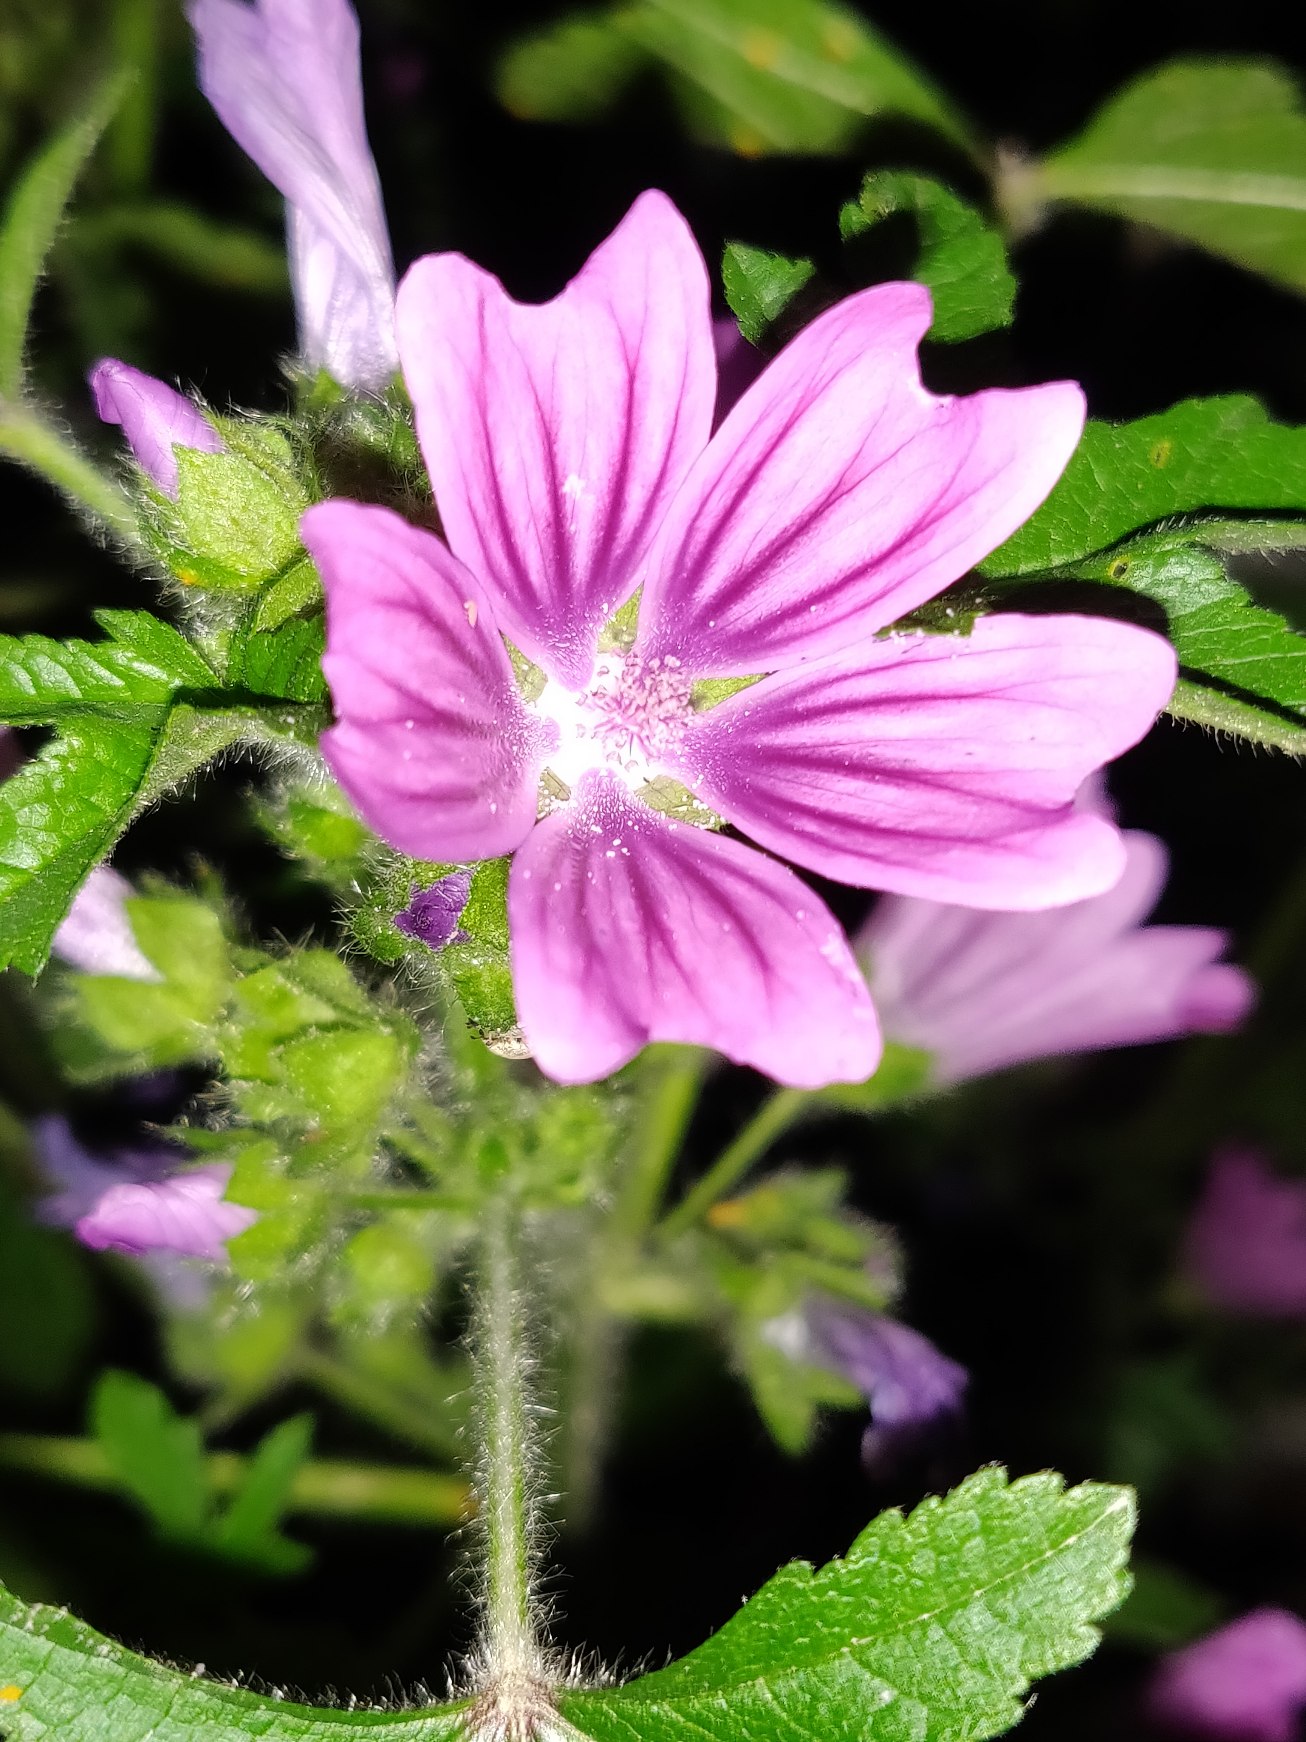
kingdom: Plantae
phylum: Tracheophyta
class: Magnoliopsida
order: Malvales
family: Malvaceae
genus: Malva
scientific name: Malva sylvestris
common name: Almindelig katost
